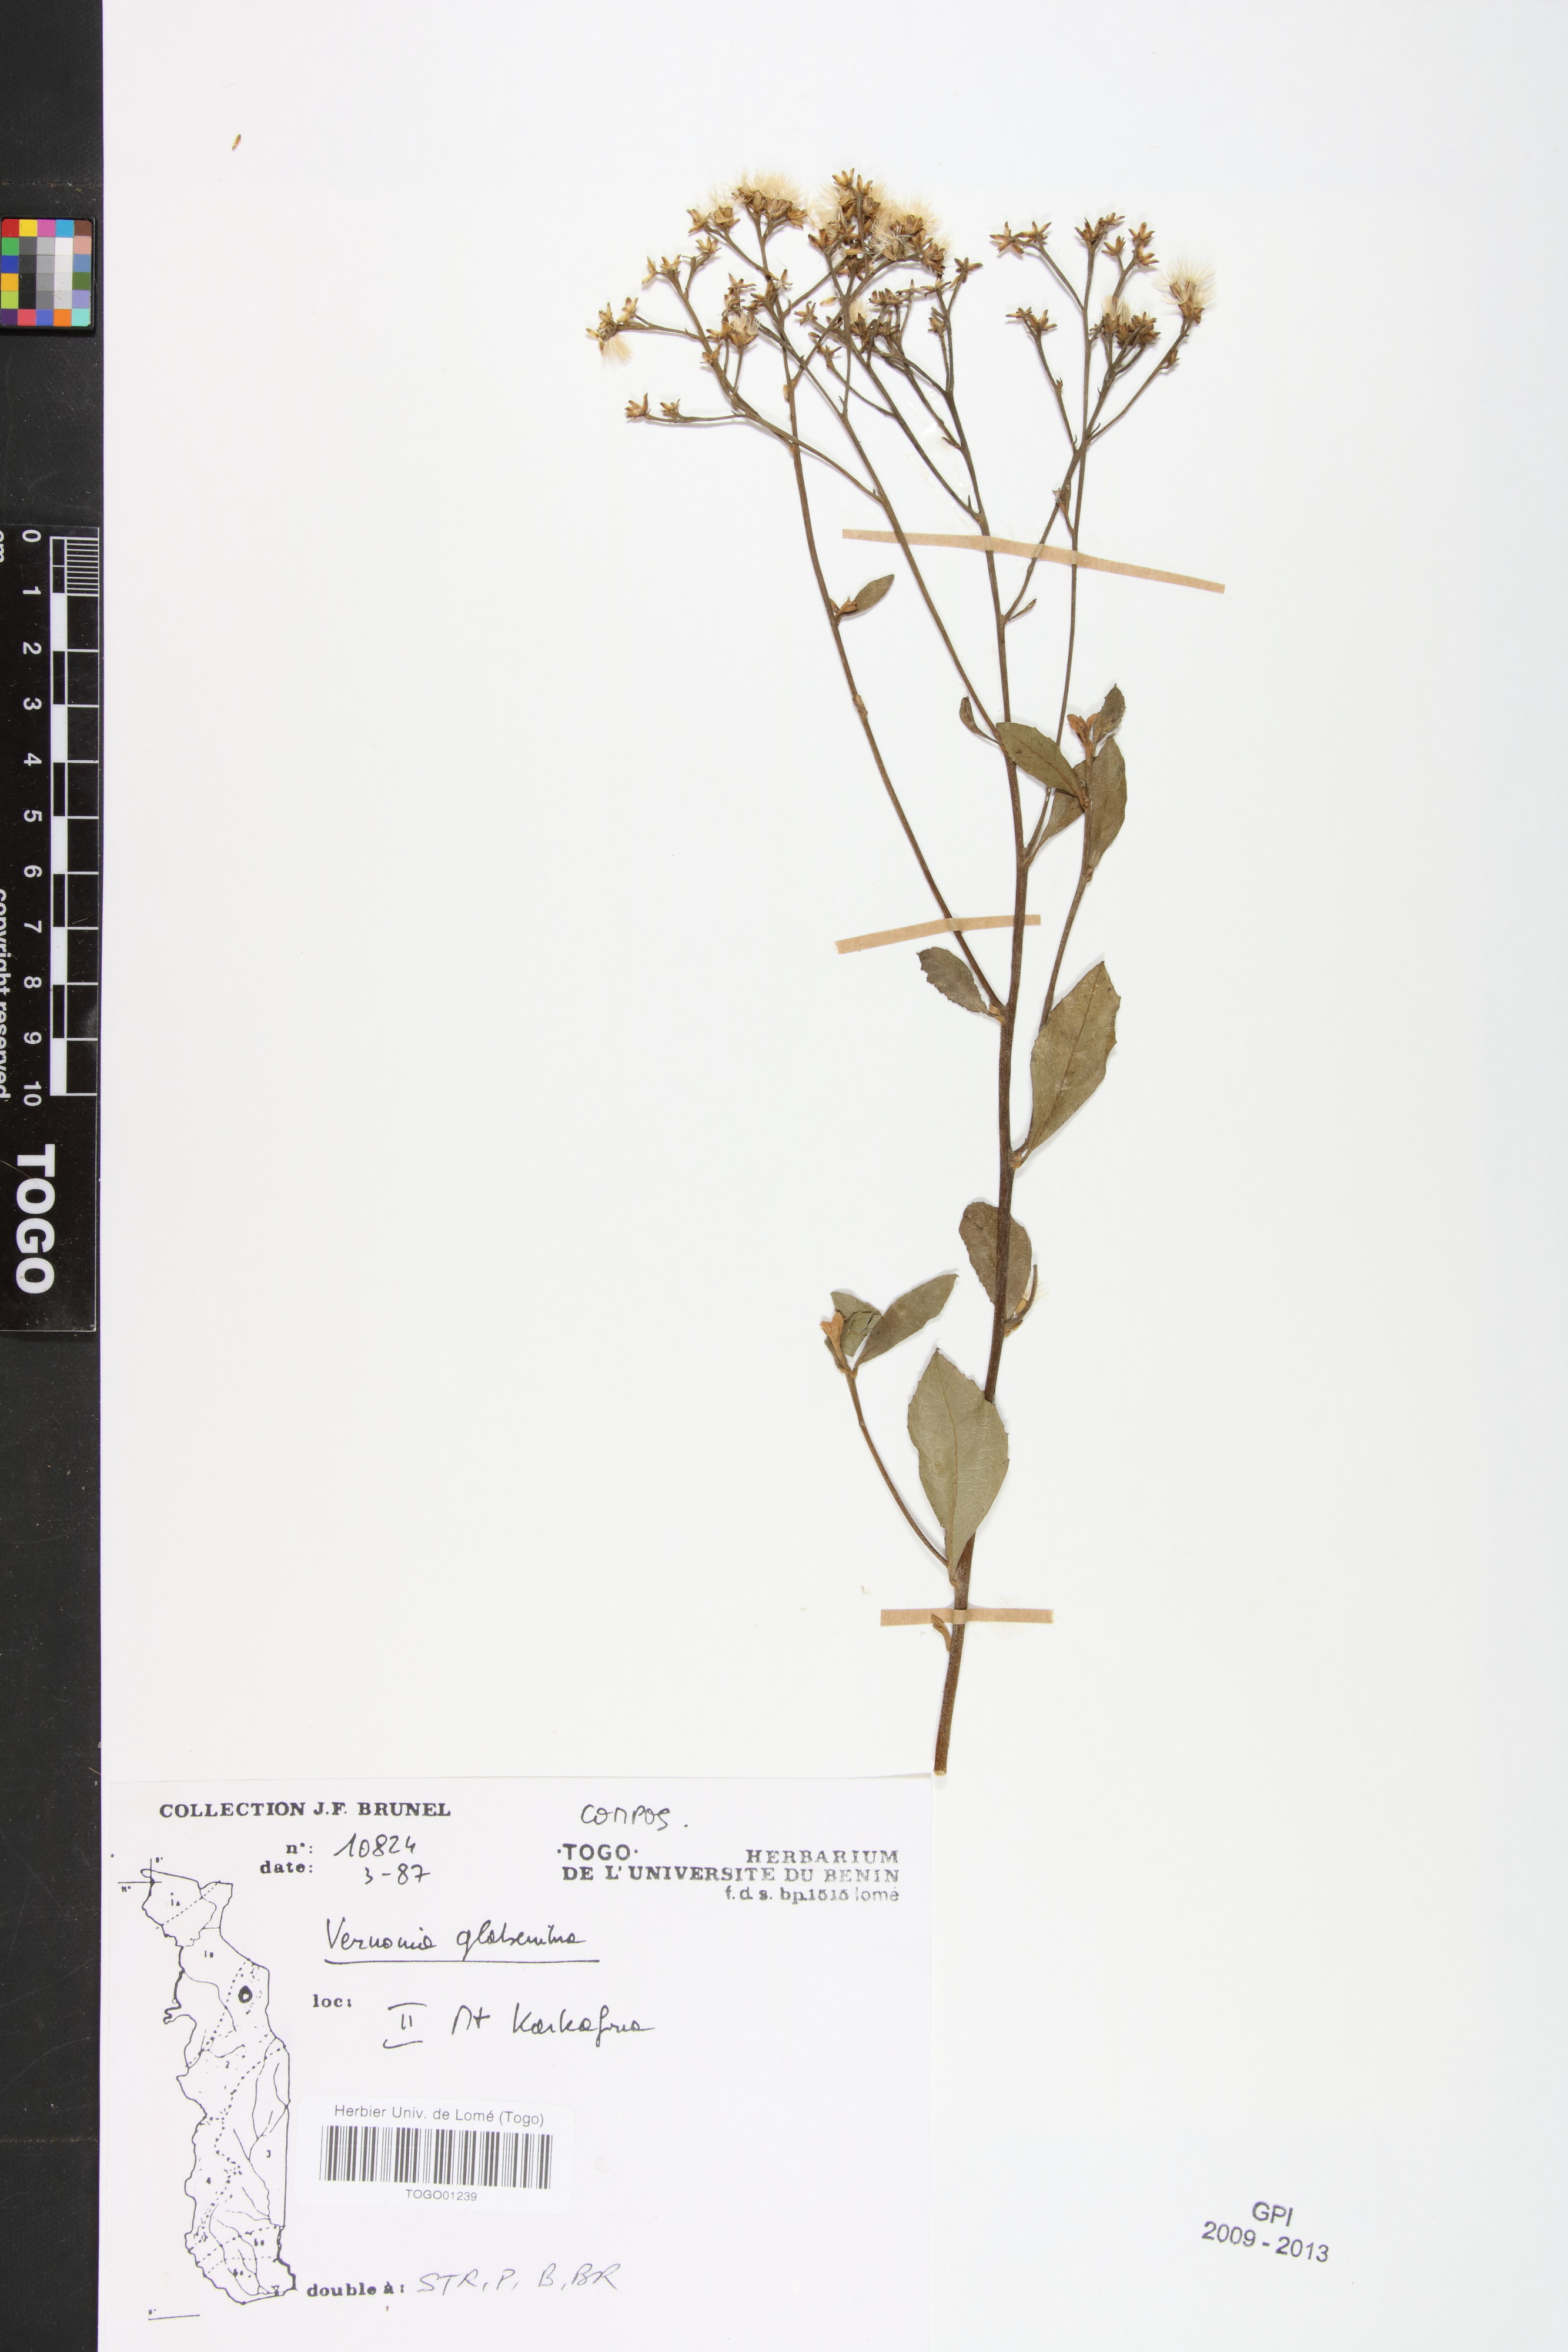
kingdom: Plantae
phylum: Tracheophyta
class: Magnoliopsida
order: Asterales
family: Asteraceae
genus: Gymnanthemum
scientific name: Gymnanthemum glaberrimum
